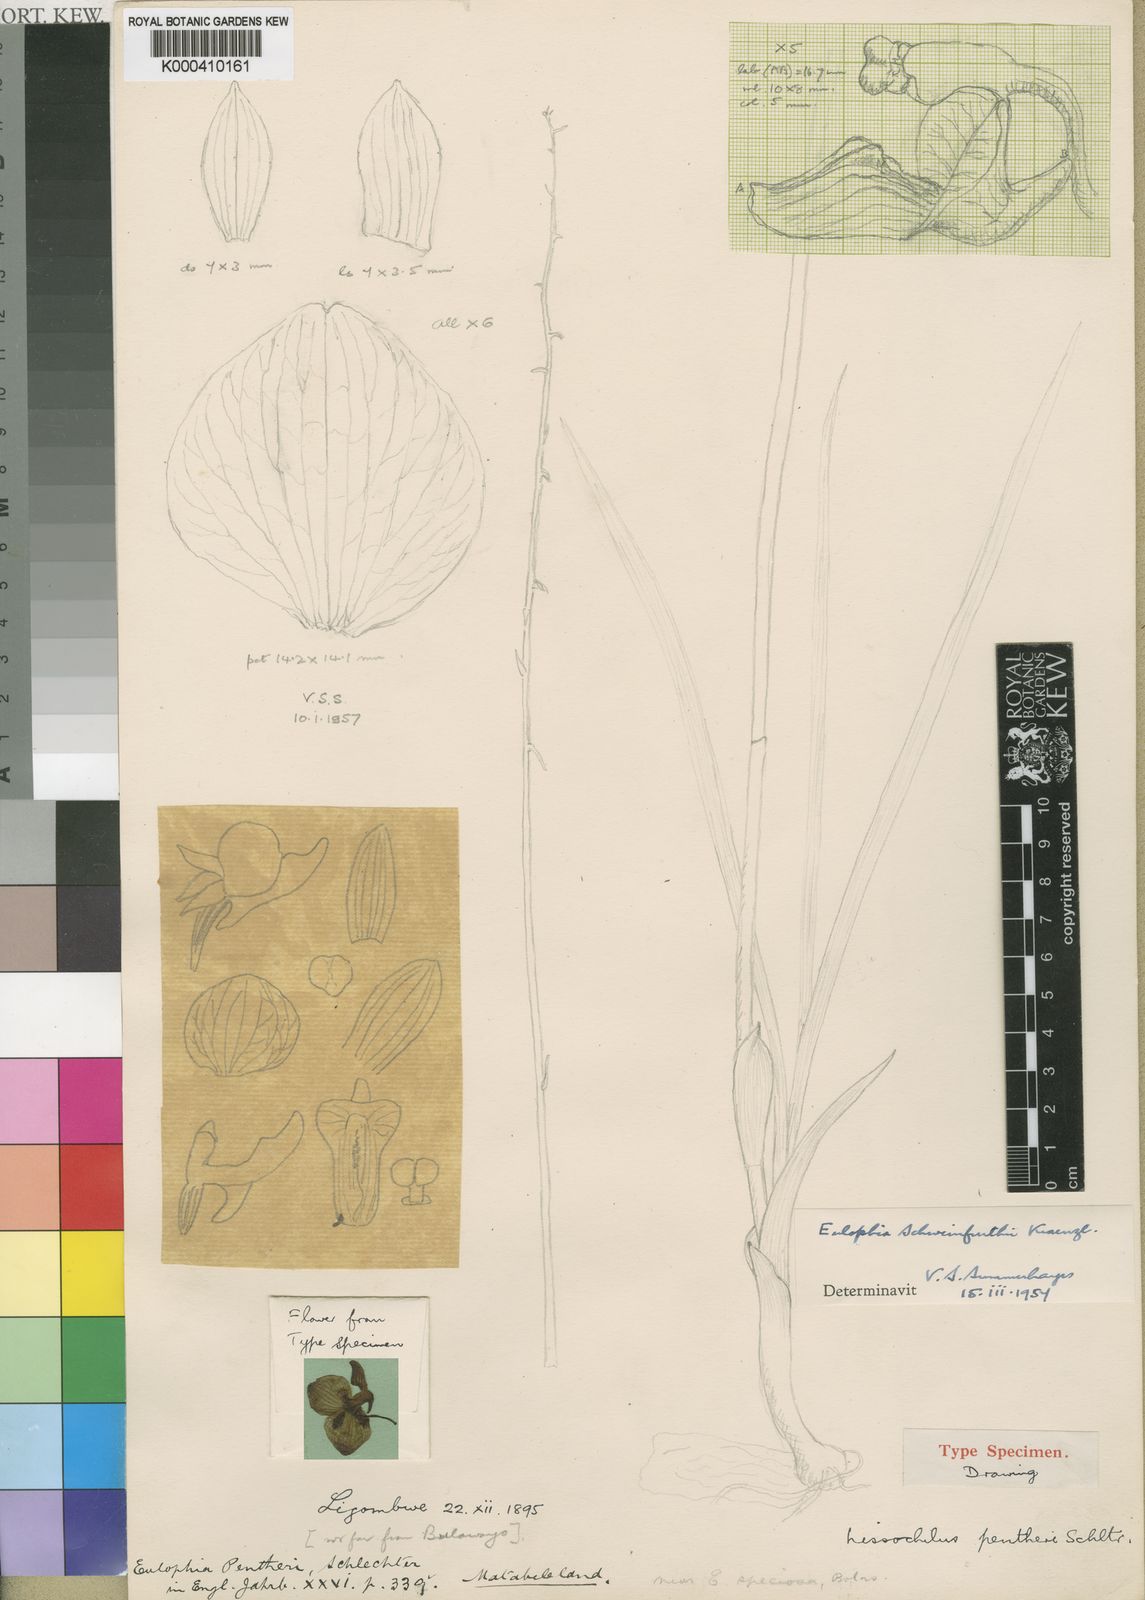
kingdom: Plantae
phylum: Tracheophyta
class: Liliopsida
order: Asparagales
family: Orchidaceae
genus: Eulophia
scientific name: Eulophia schweinfurthii
